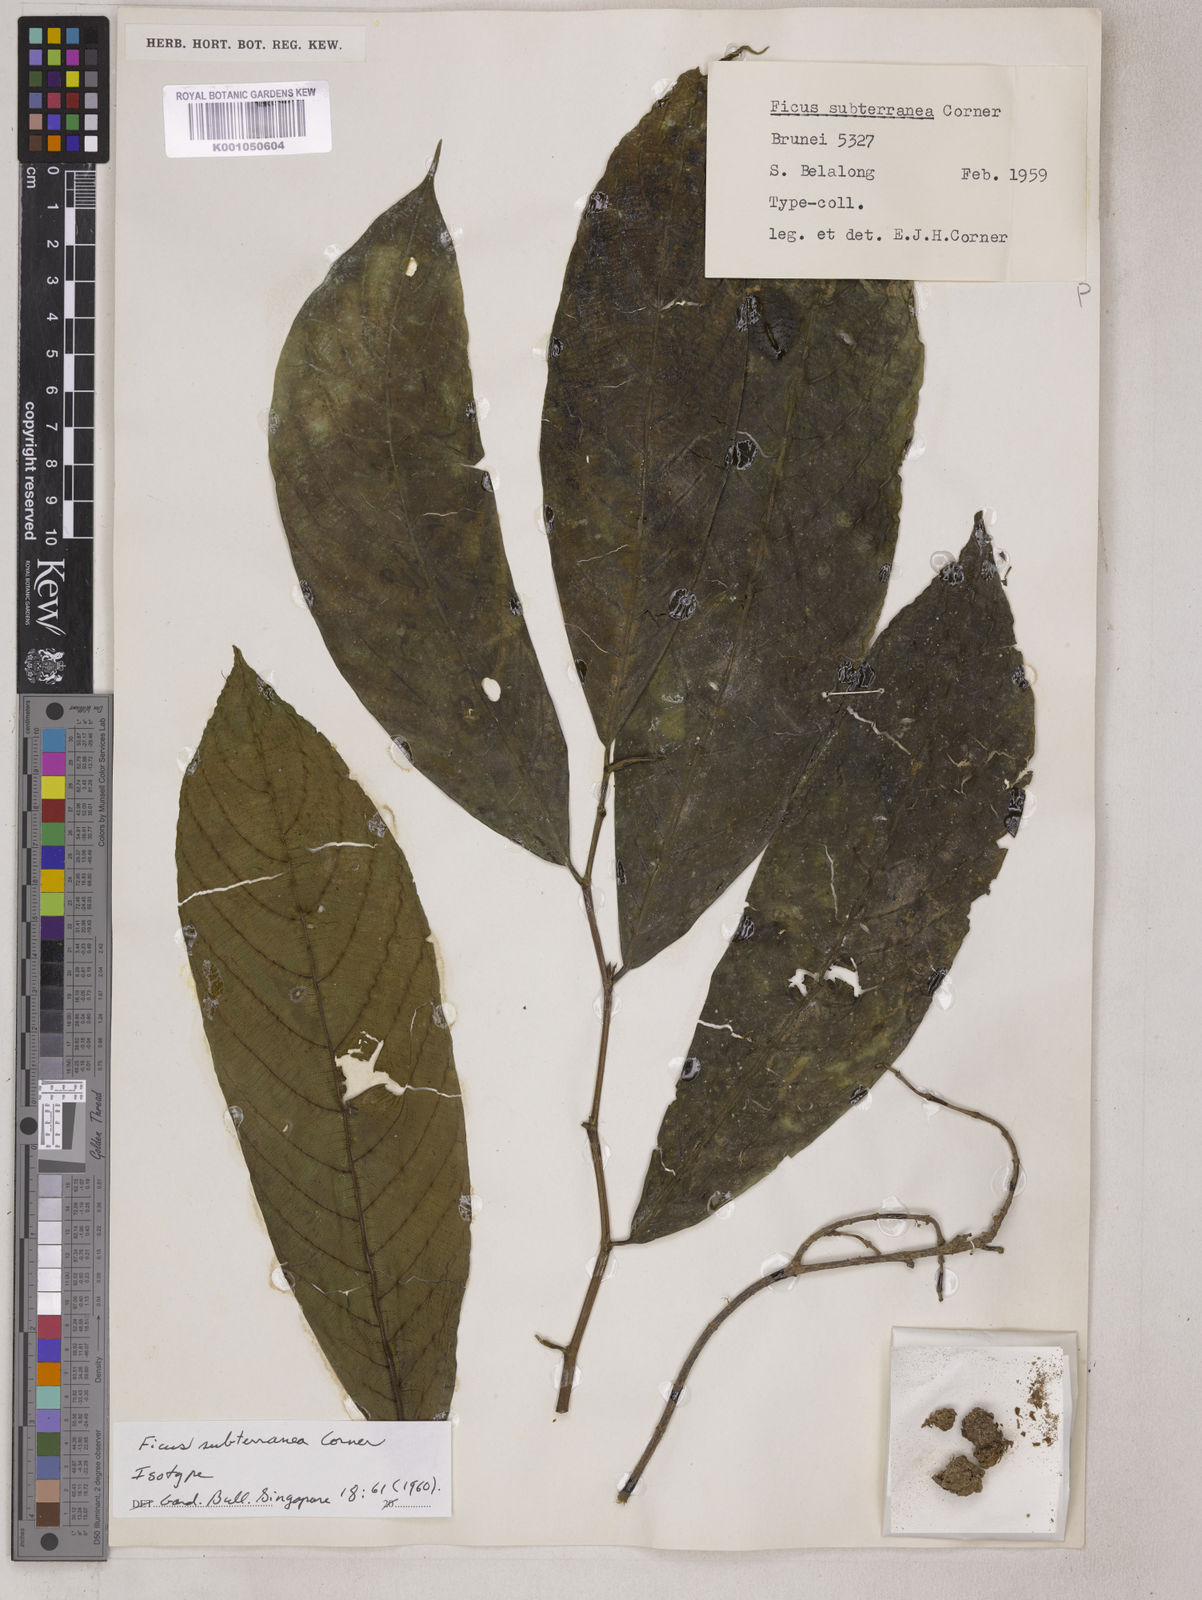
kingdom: Plantae
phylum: Tracheophyta
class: Magnoliopsida
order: Rosales
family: Moraceae
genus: Ficus
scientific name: Ficus subterranea
